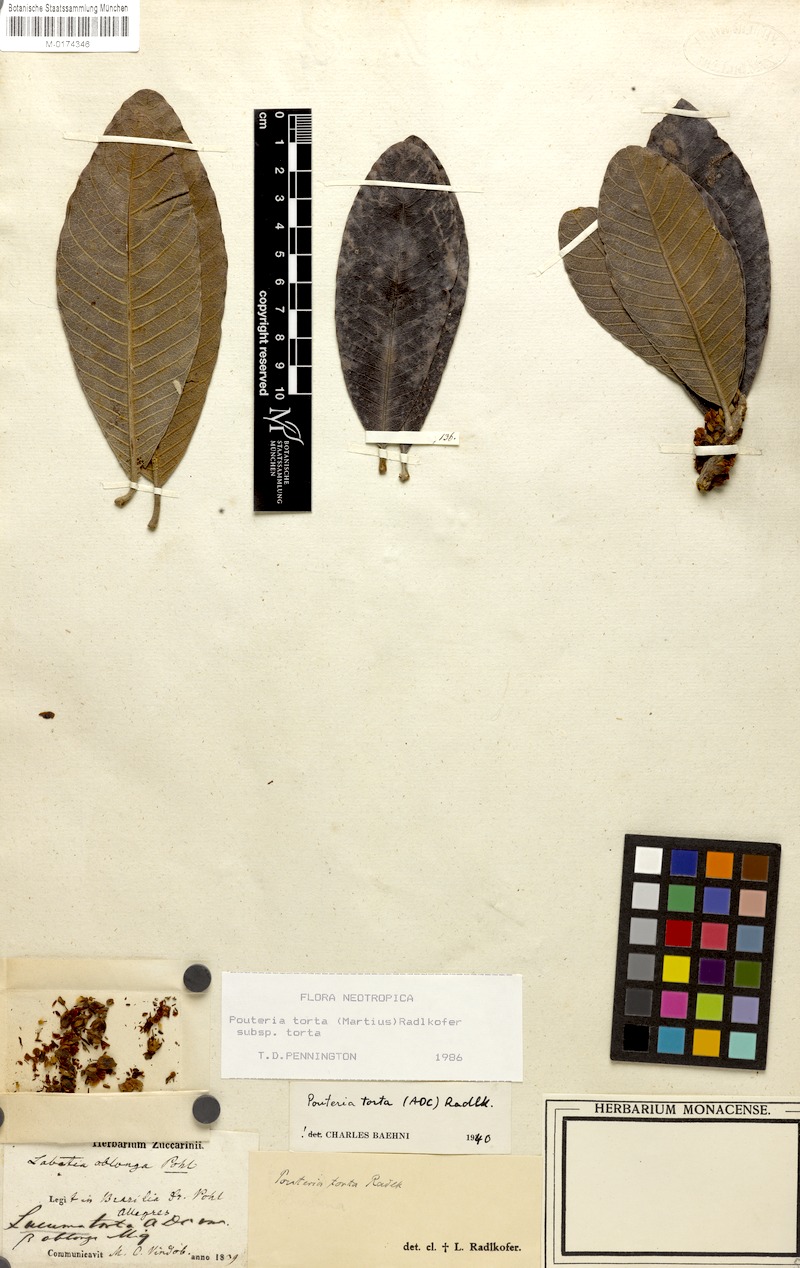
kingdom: Plantae
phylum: Tracheophyta
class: Magnoliopsida
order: Ericales
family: Sapotaceae
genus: Pouteria
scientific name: Pouteria torta
